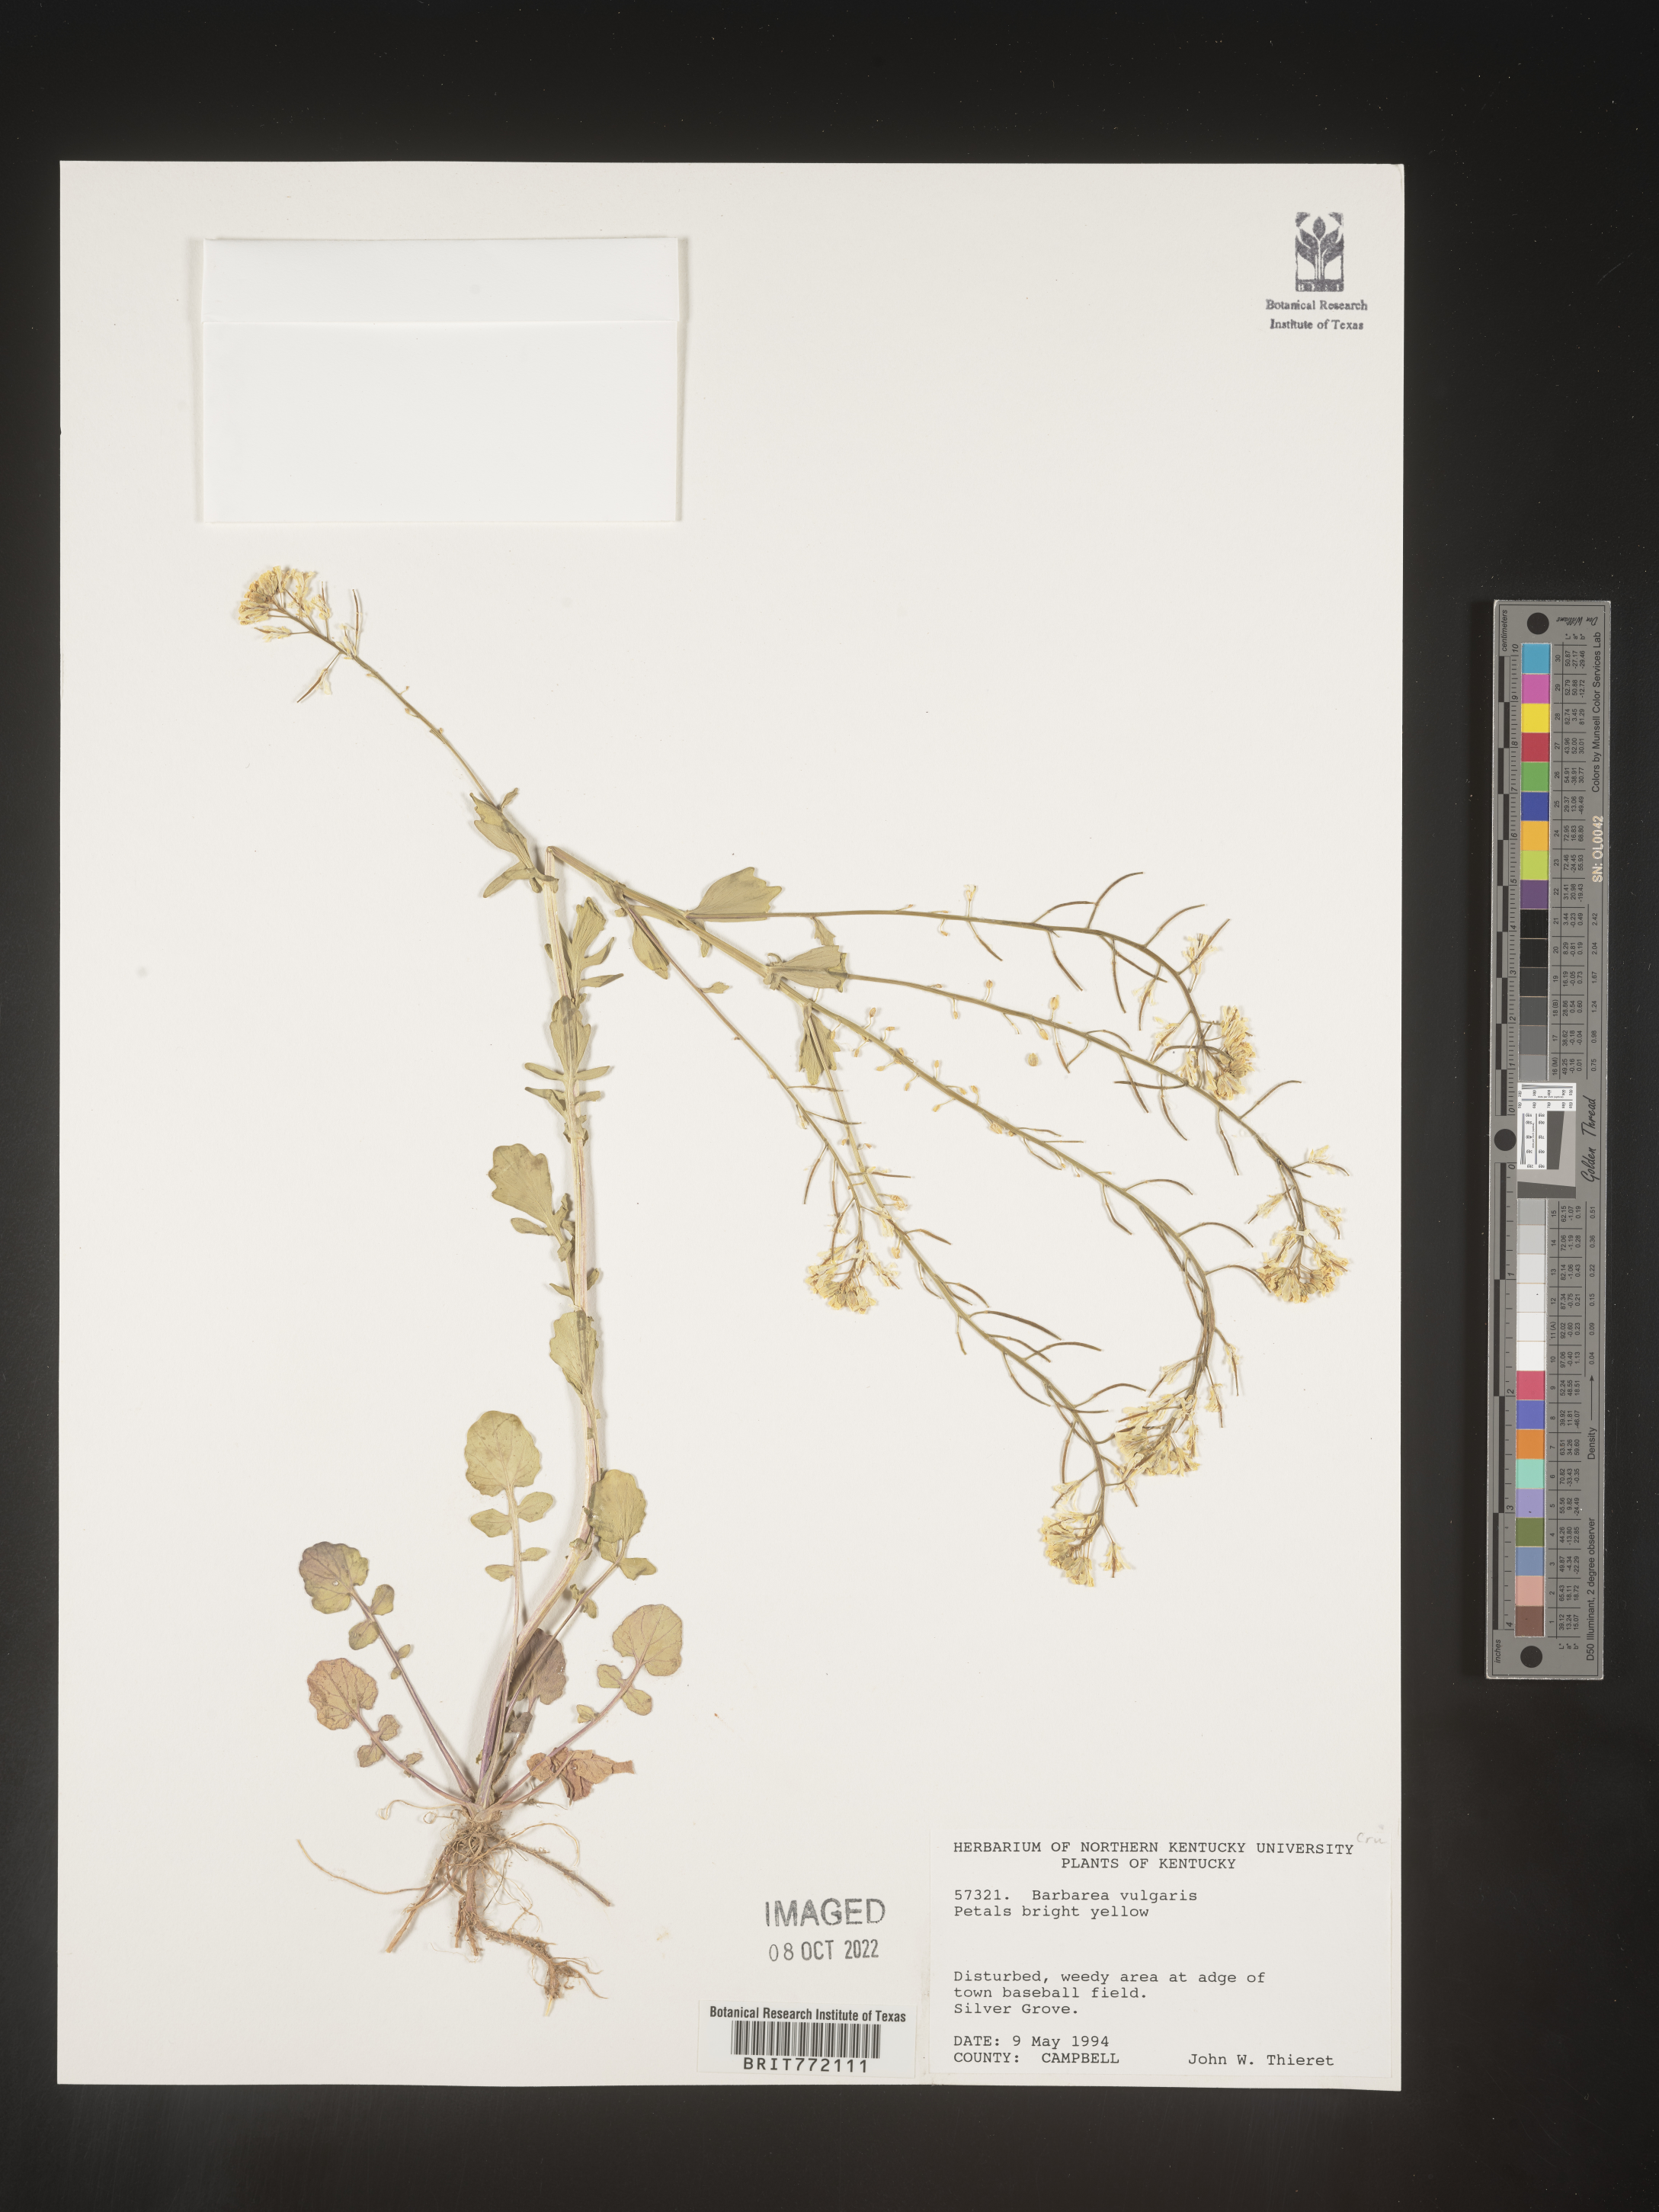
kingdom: Plantae
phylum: Tracheophyta
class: Magnoliopsida
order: Brassicales
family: Brassicaceae
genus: Barbarea
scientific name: Barbarea vulgaris
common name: Cressy-greens
